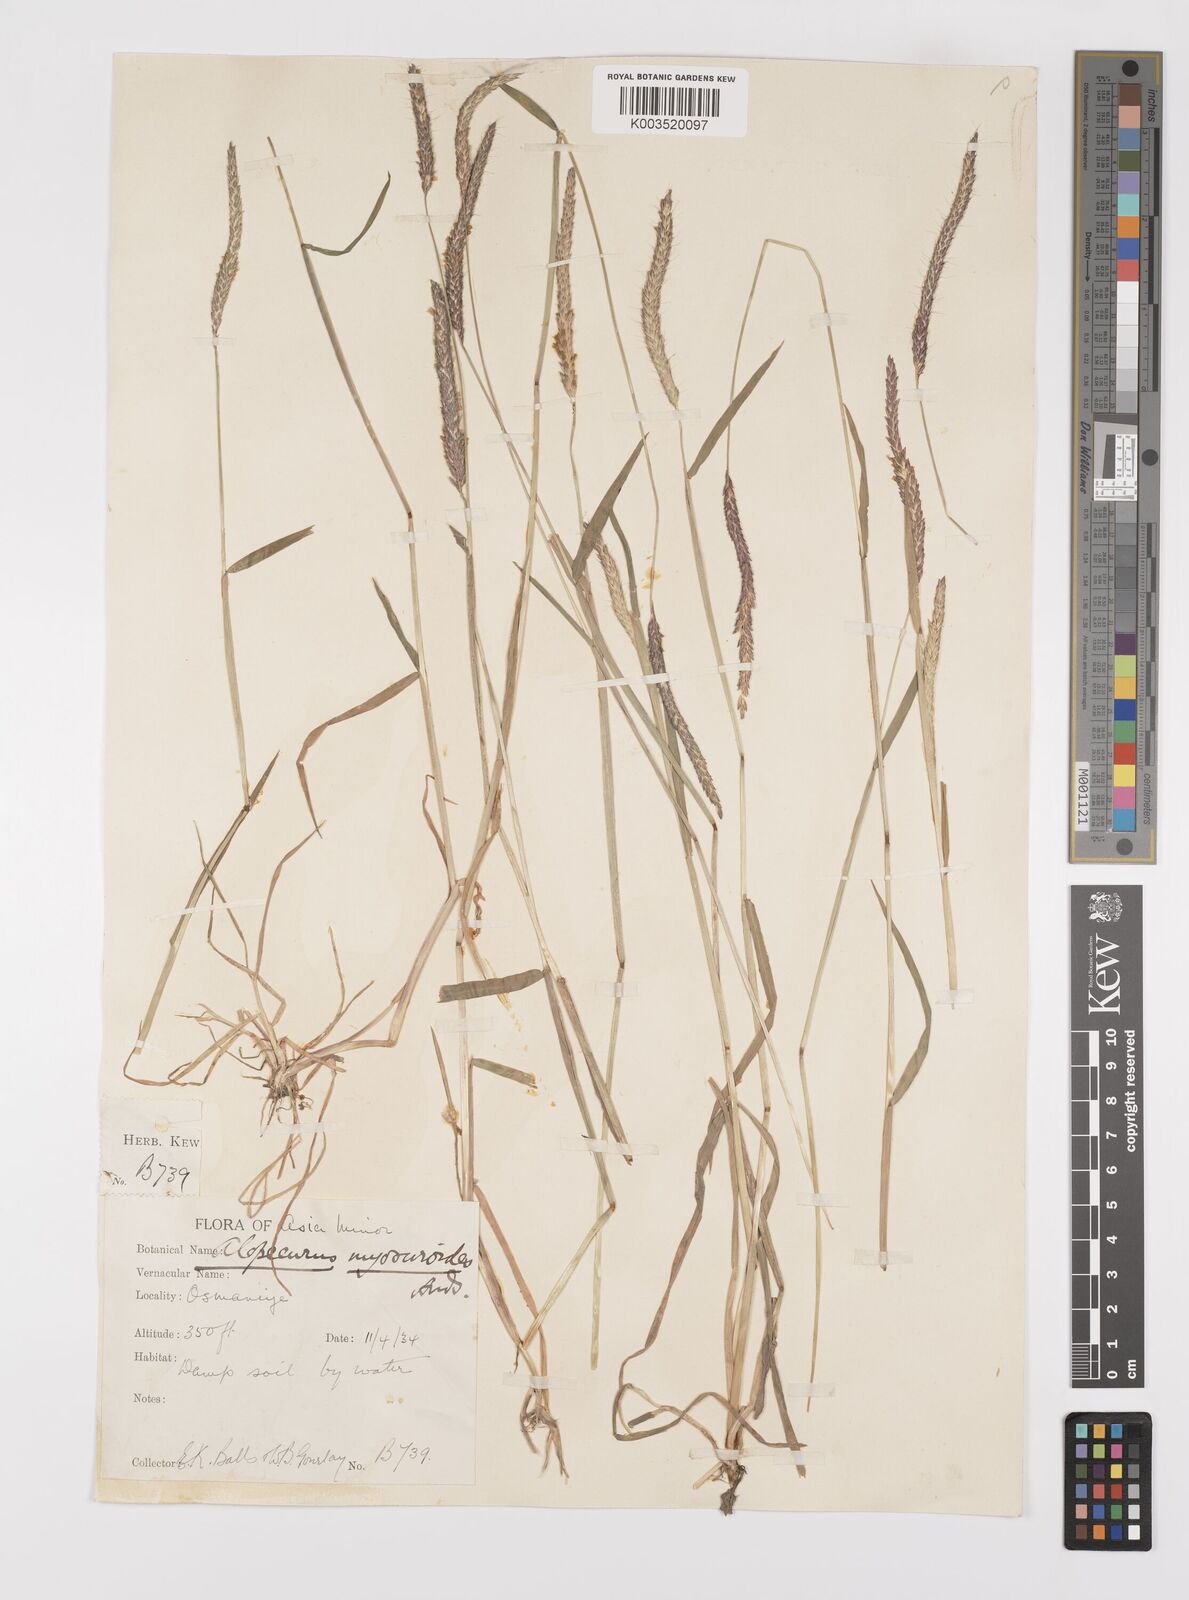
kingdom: Plantae
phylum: Tracheophyta
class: Liliopsida
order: Poales
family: Poaceae
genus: Alopecurus
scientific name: Alopecurus myosuroides
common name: Black-grass
